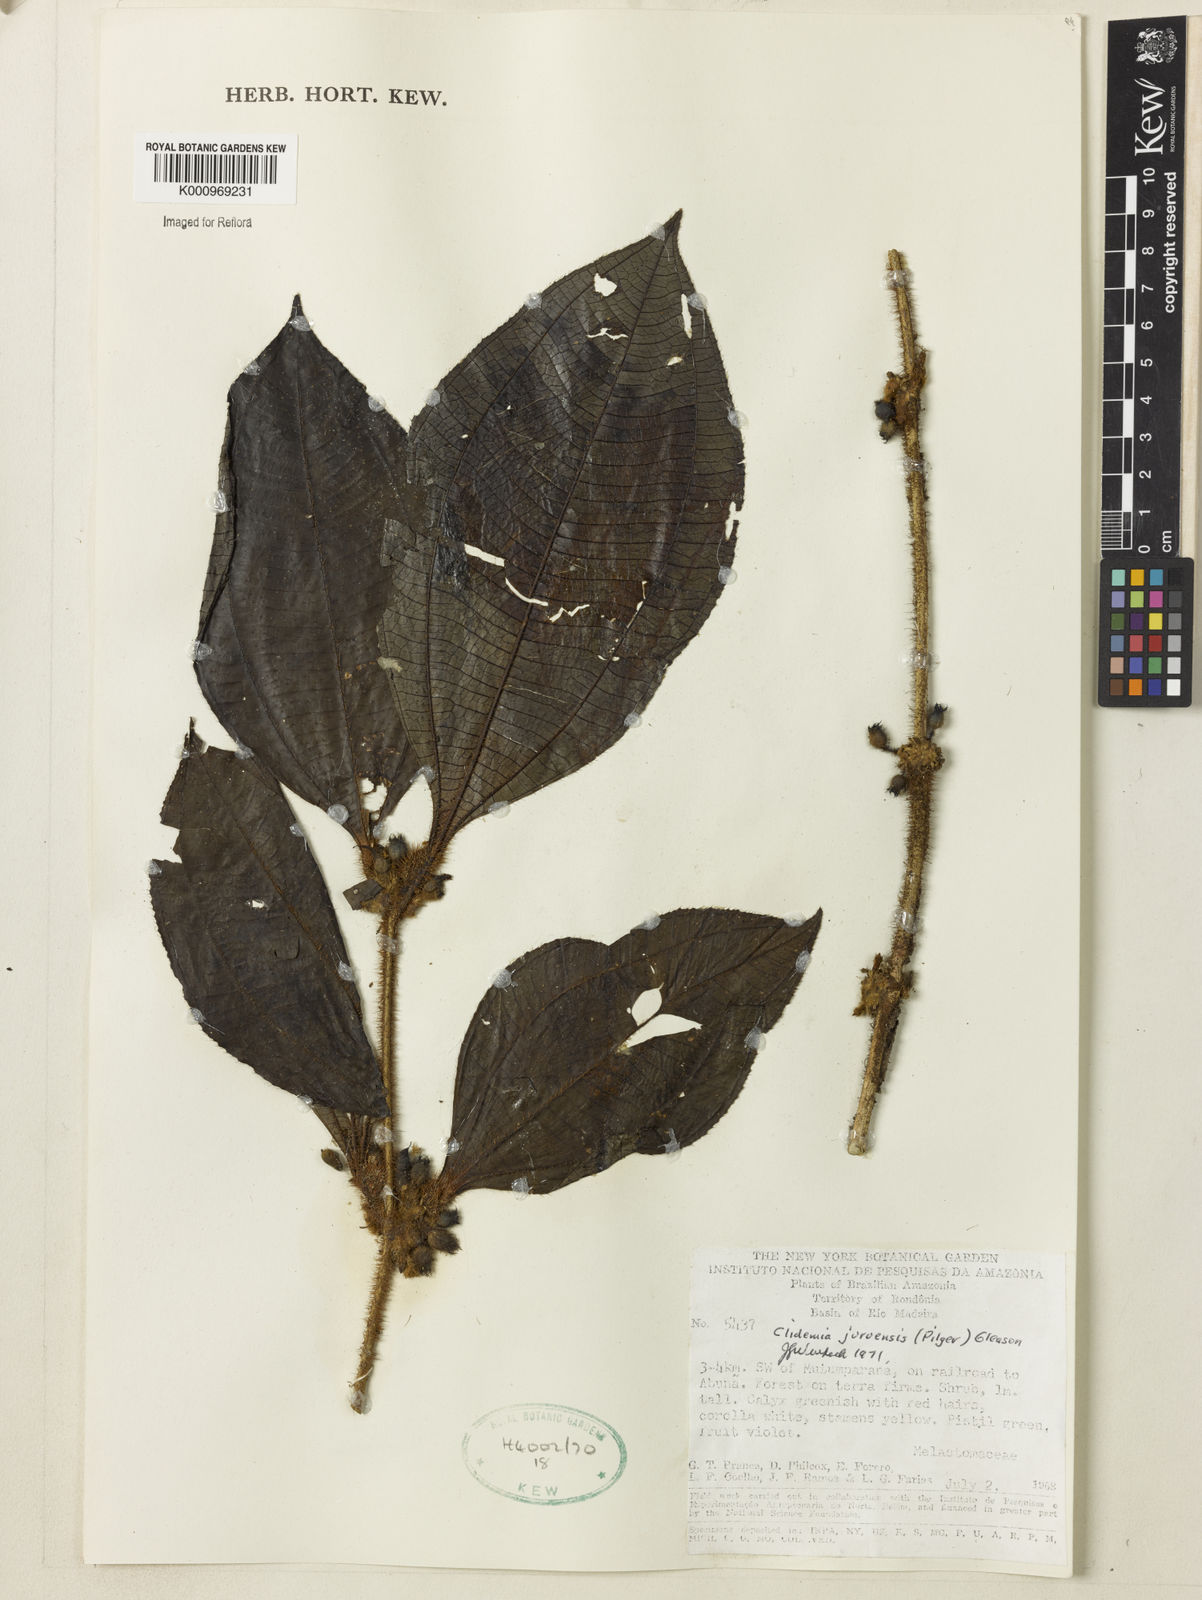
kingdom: Plantae
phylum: Tracheophyta
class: Magnoliopsida
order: Myrtales
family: Melastomataceae
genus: Miconia
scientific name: Miconia formicojuruensis
